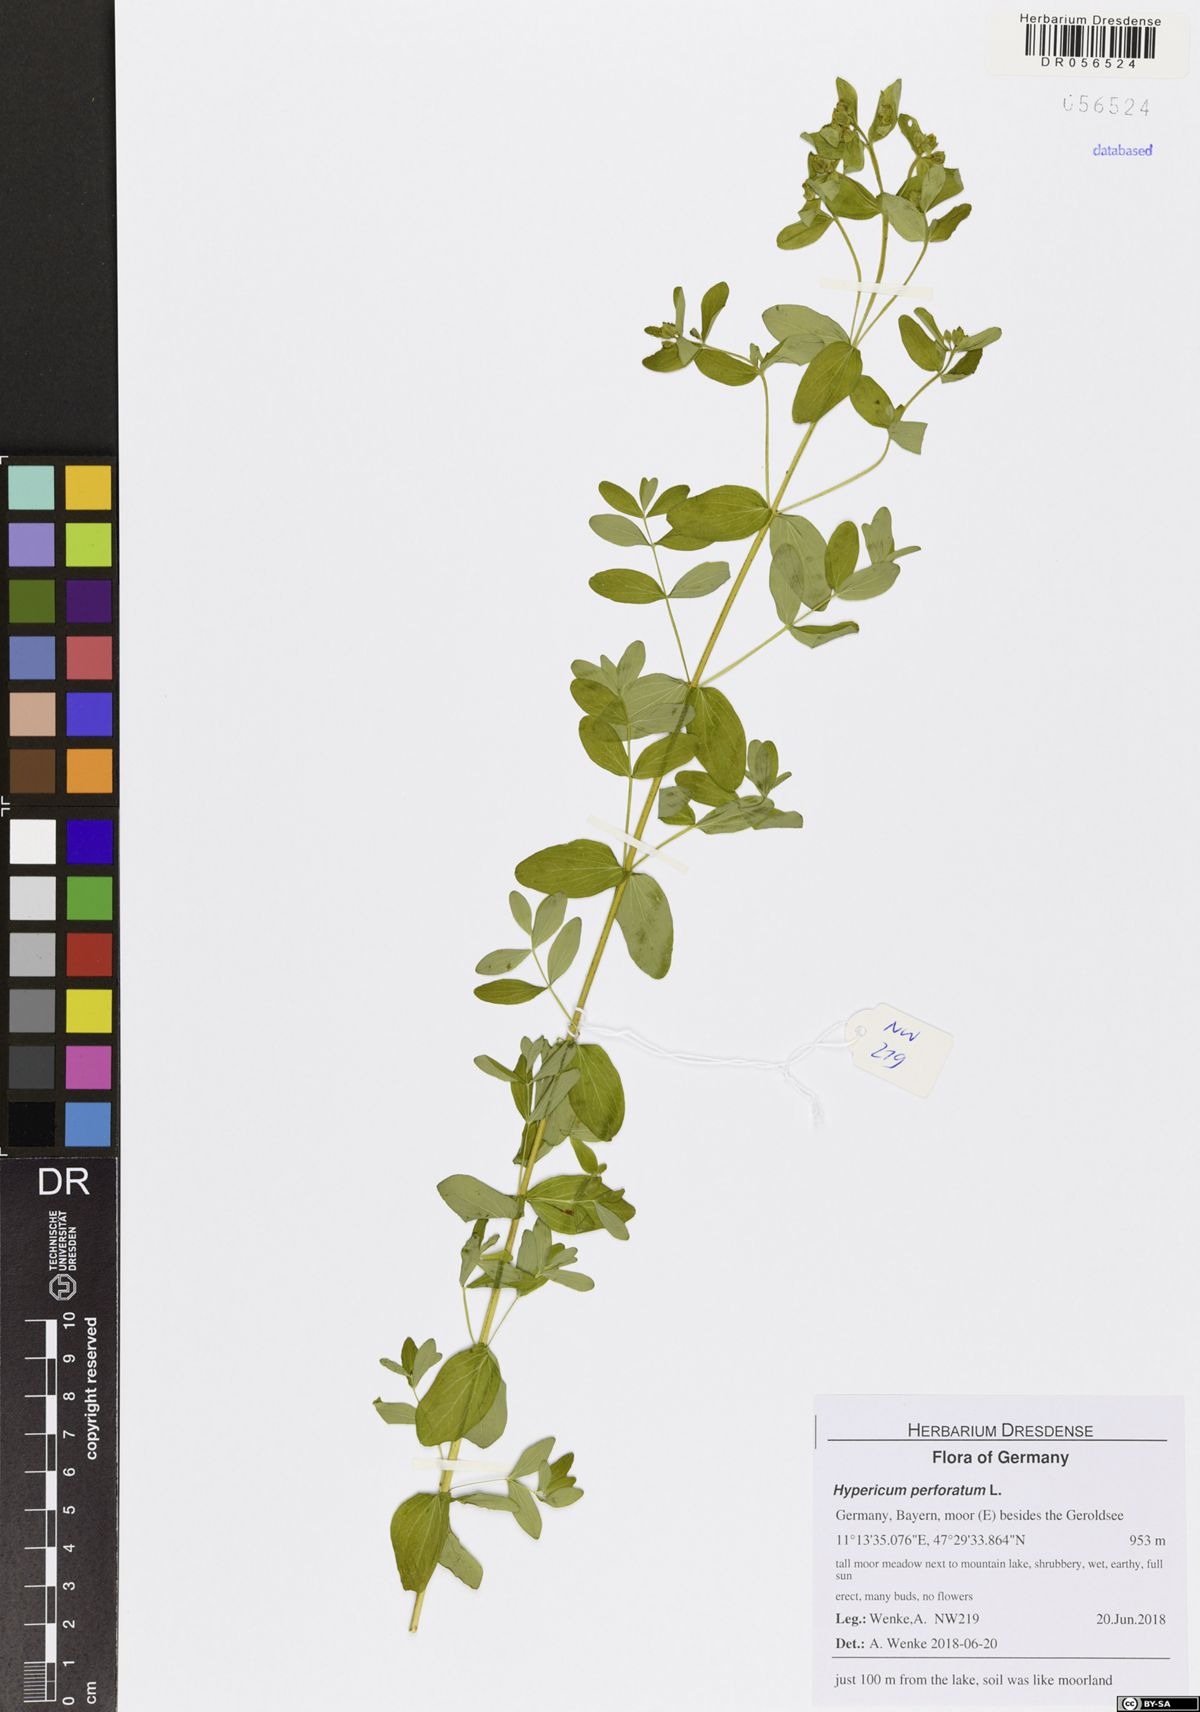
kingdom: Plantae
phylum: Tracheophyta
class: Magnoliopsida
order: Malpighiales
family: Hypericaceae
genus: Hypericum
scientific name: Hypericum perforatum
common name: Common st. johnswort
